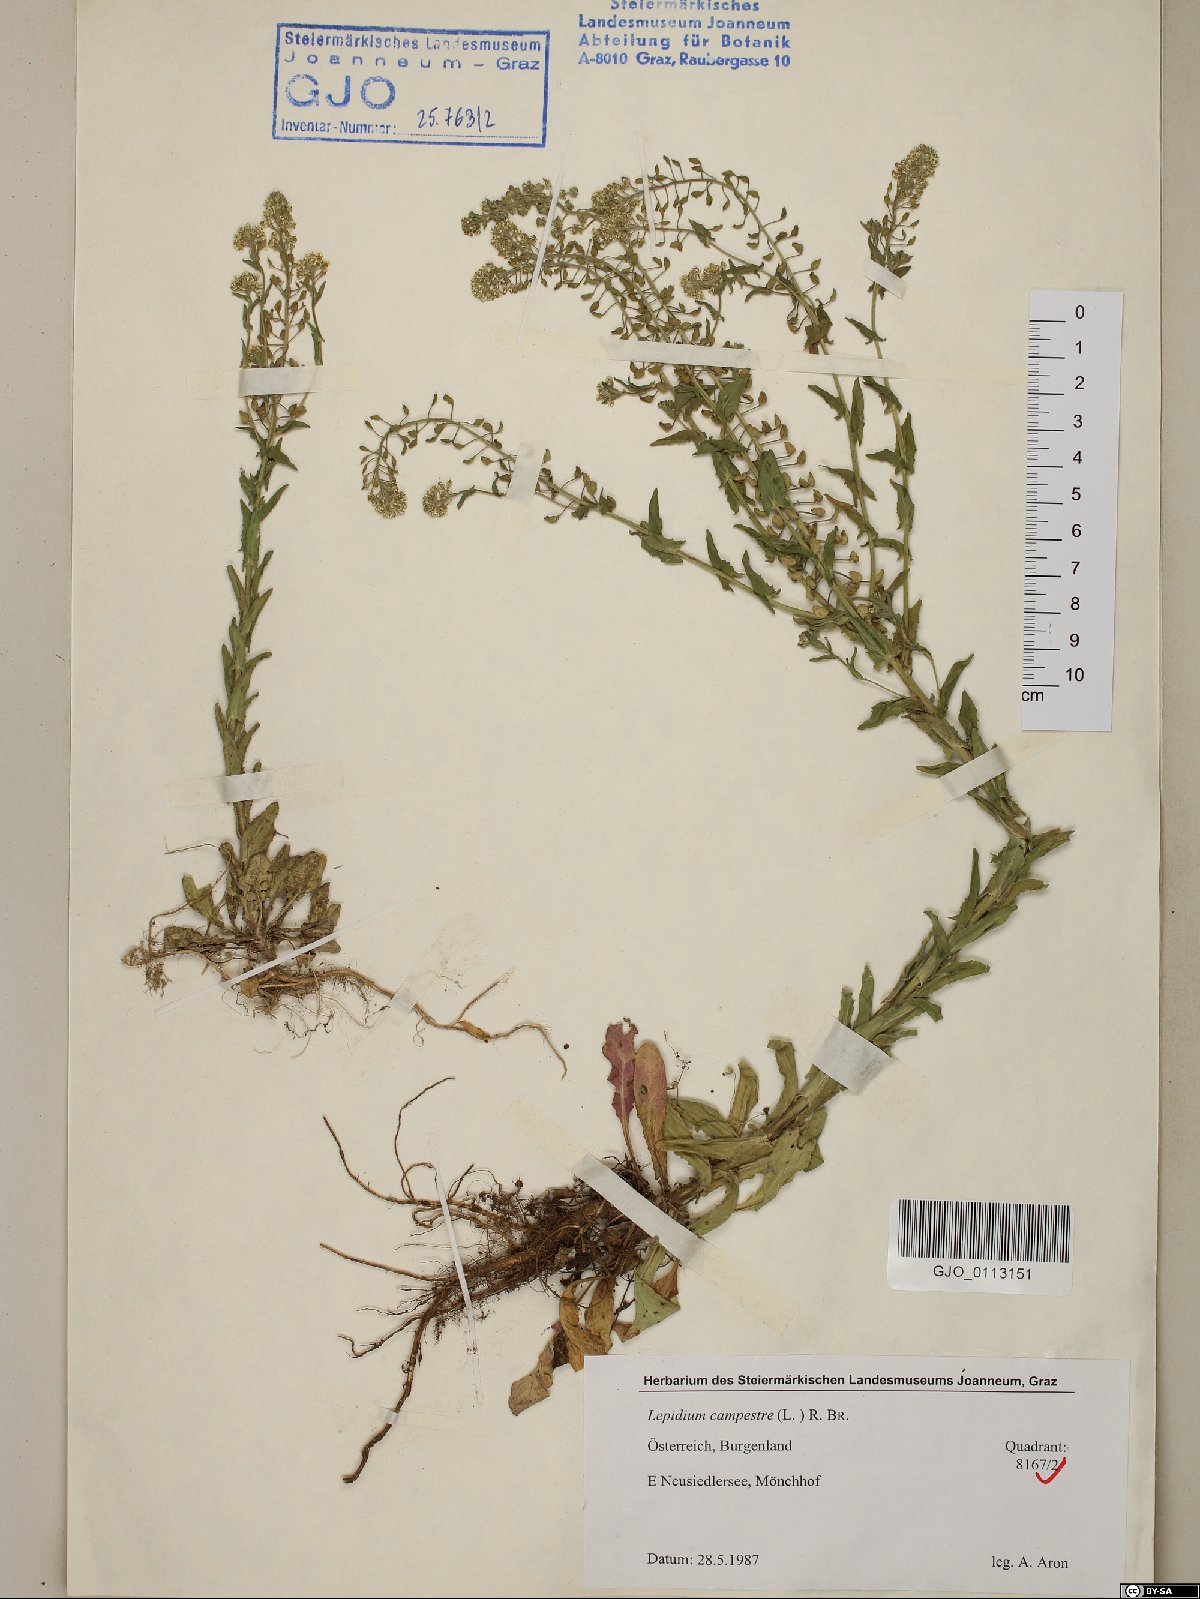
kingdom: Plantae
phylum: Tracheophyta
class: Magnoliopsida
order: Brassicales
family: Brassicaceae
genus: Lepidium
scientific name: Lepidium campestre
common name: Field pepperwort
